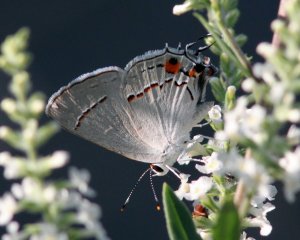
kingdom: Animalia
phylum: Arthropoda
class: Insecta
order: Lepidoptera
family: Lycaenidae
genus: Strymon
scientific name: Strymon melinus
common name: Gray Hairstreak
